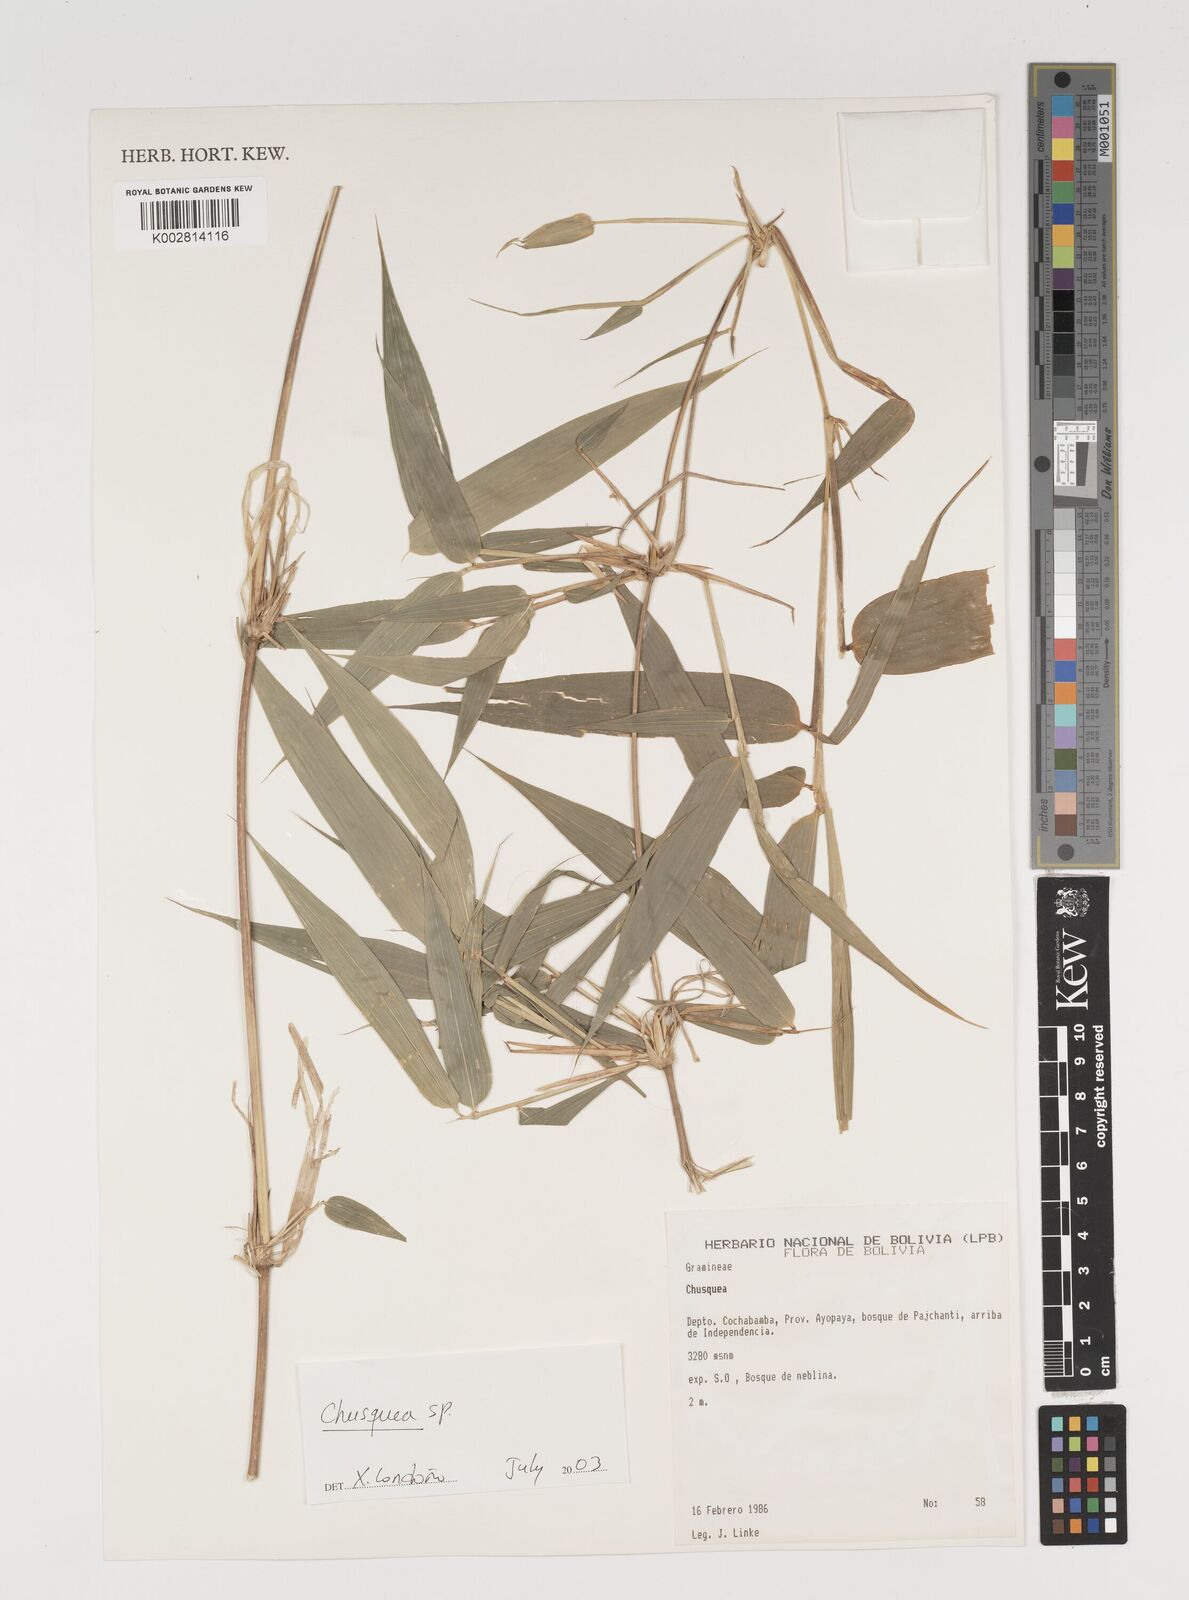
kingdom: Plantae
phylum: Tracheophyta
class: Liliopsida
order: Poales
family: Poaceae
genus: Chusquea
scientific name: Chusquea
